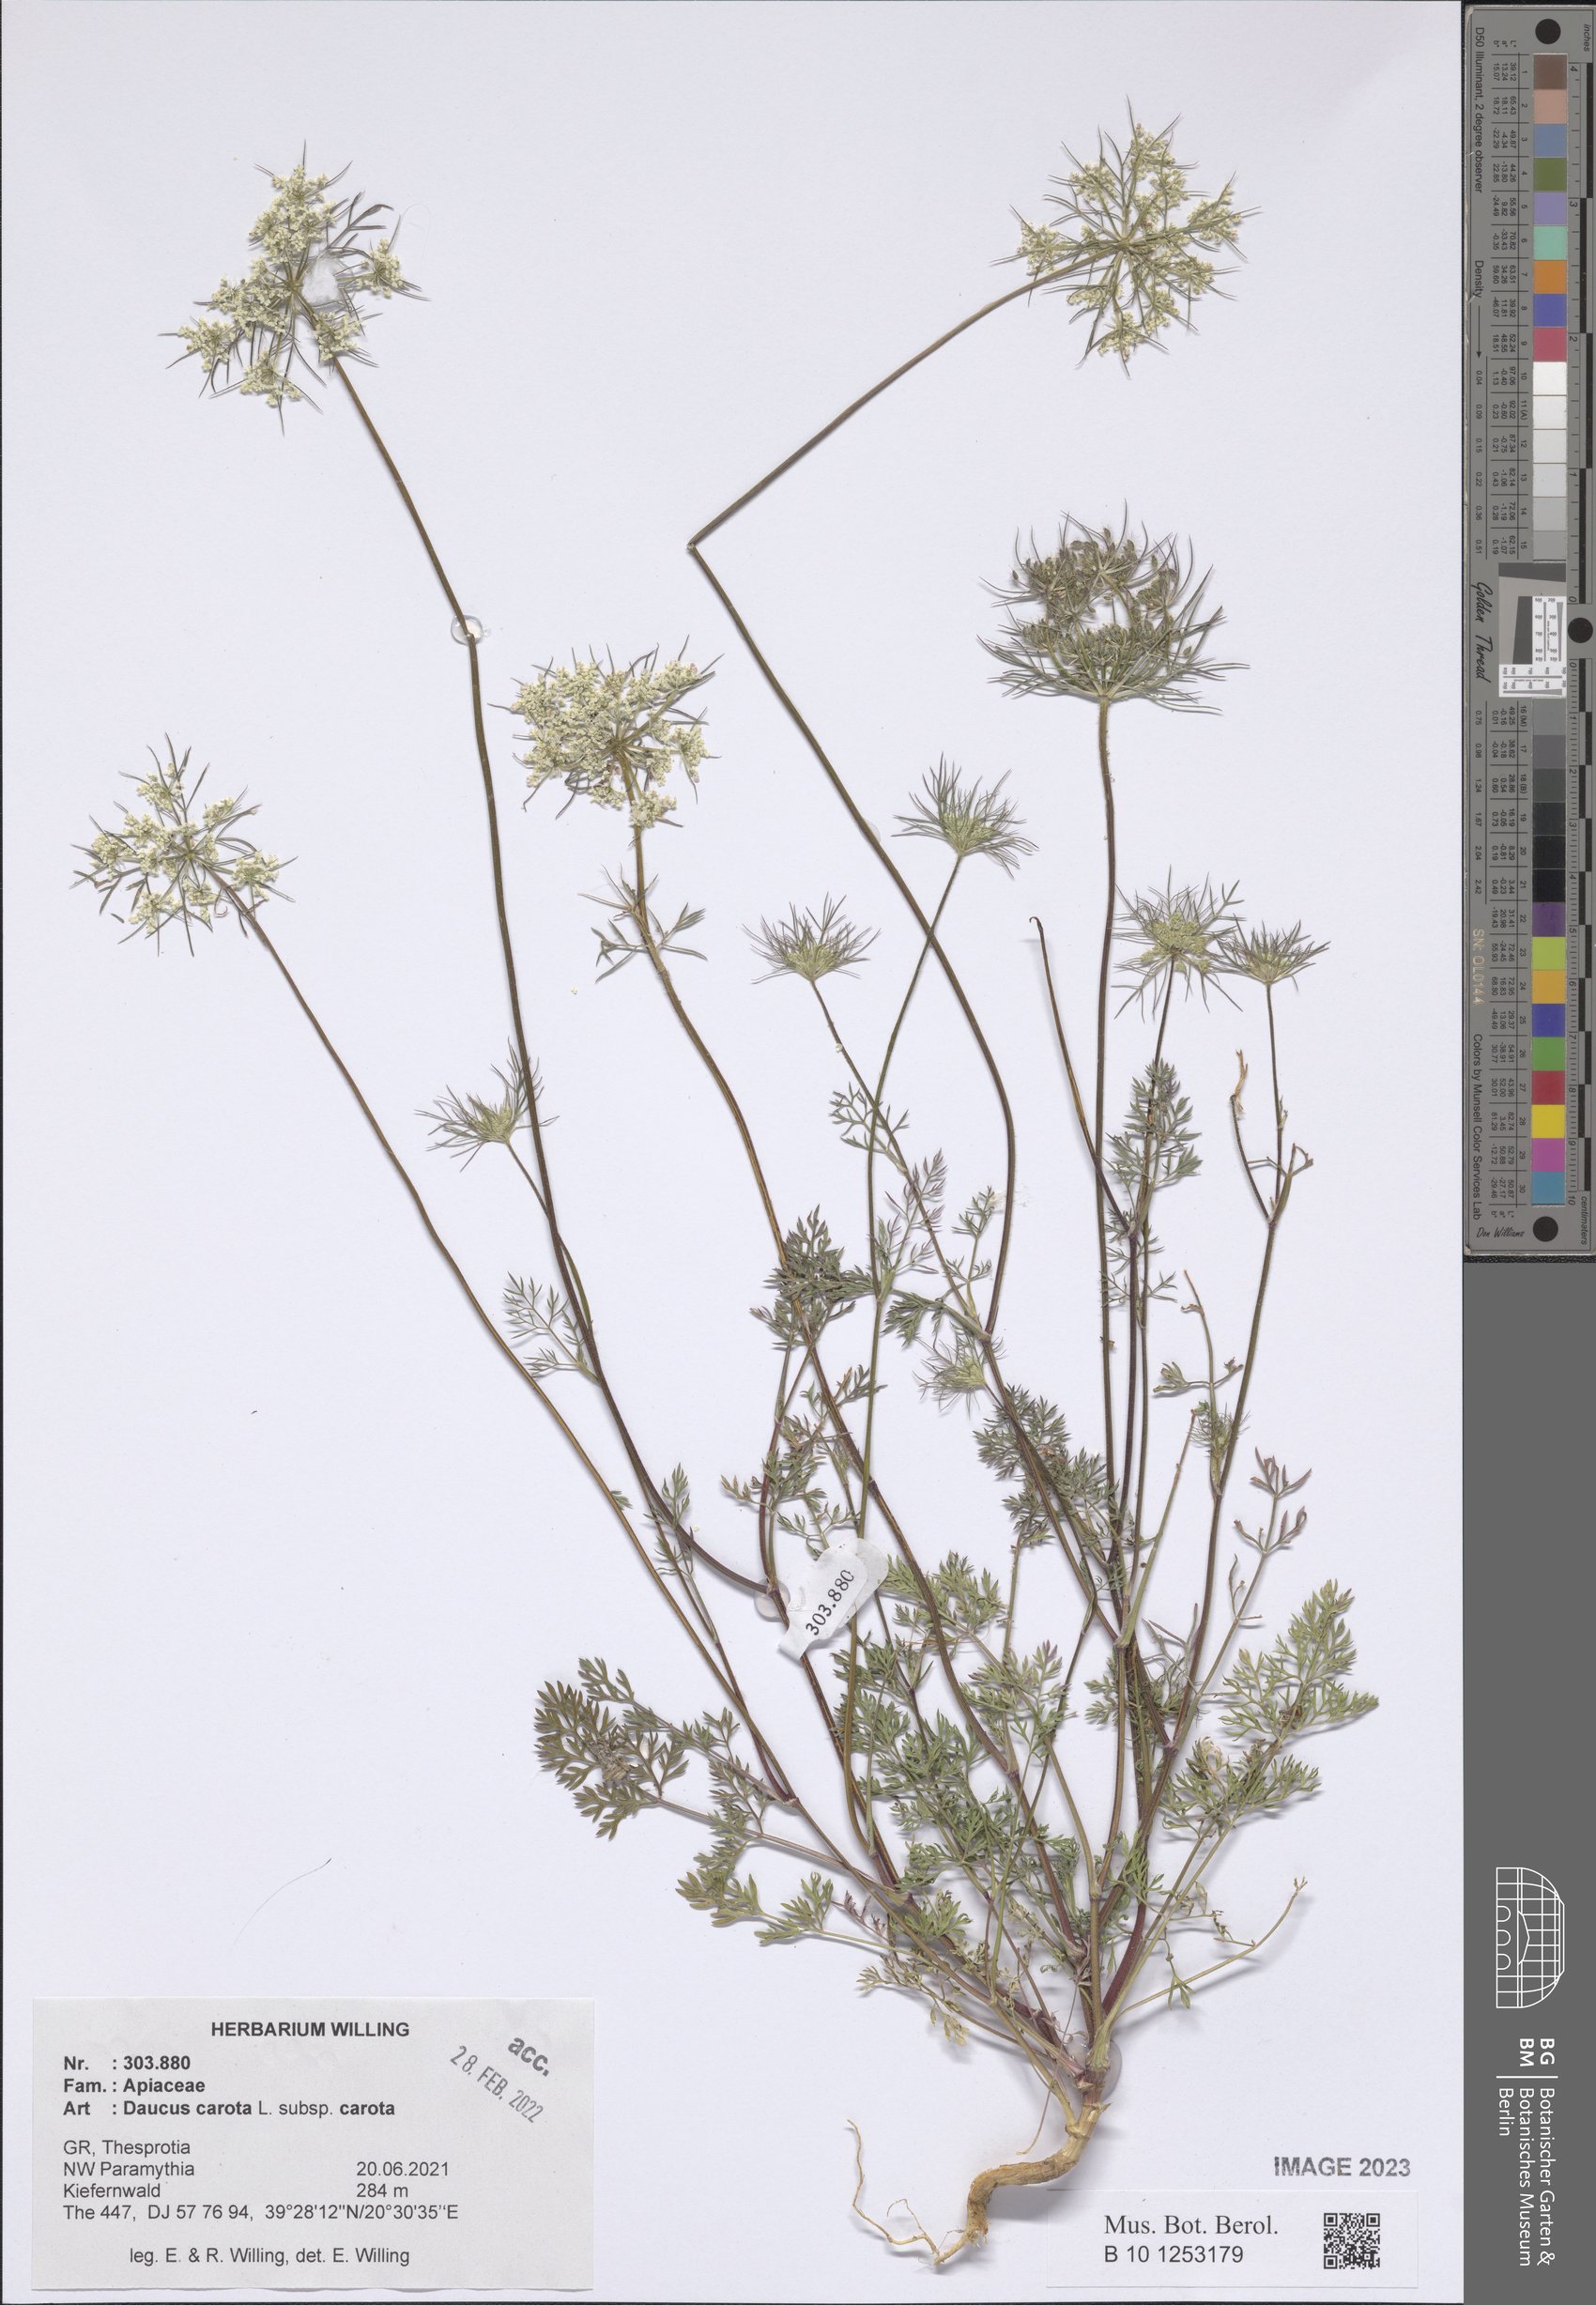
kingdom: Plantae
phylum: Tracheophyta
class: Magnoliopsida
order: Apiales
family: Apiaceae
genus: Daucus
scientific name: Daucus carota
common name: Wild carrot
